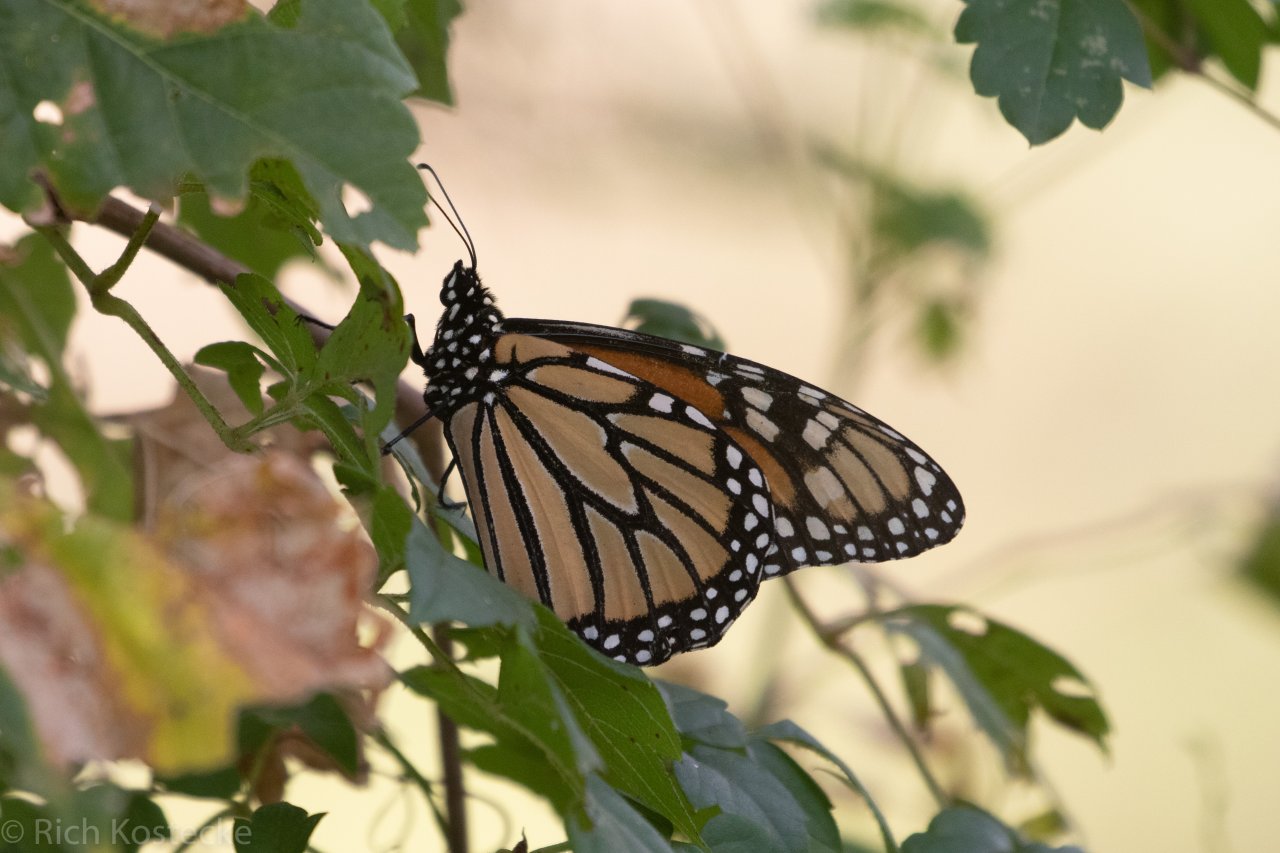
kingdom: Animalia
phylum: Arthropoda
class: Insecta
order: Lepidoptera
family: Nymphalidae
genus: Danaus
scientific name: Danaus plexippus
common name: Monarch
